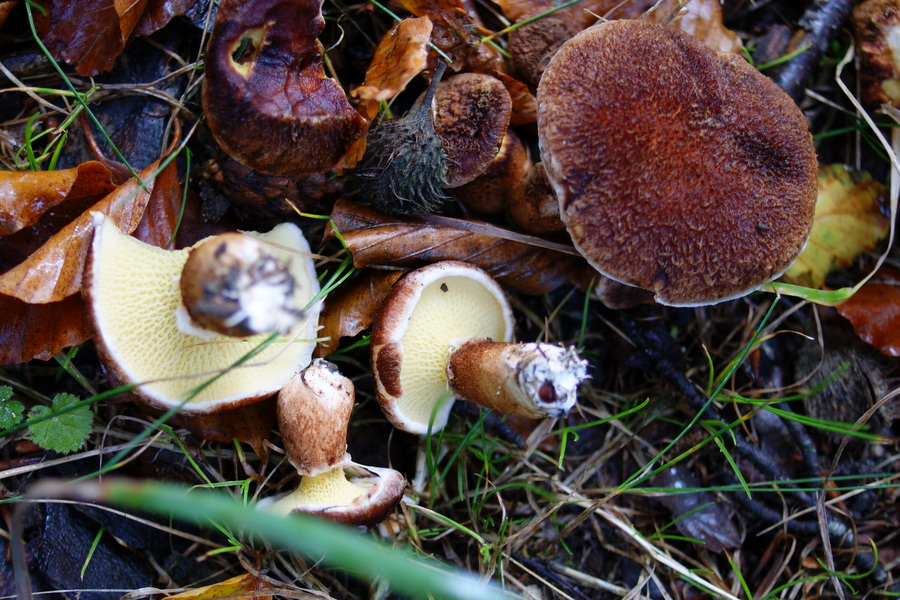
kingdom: Fungi
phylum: Basidiomycota
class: Agaricomycetes
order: Boletales
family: Suillaceae
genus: Suillus
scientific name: Suillus cavipes
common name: hulstokket slimrørhat
